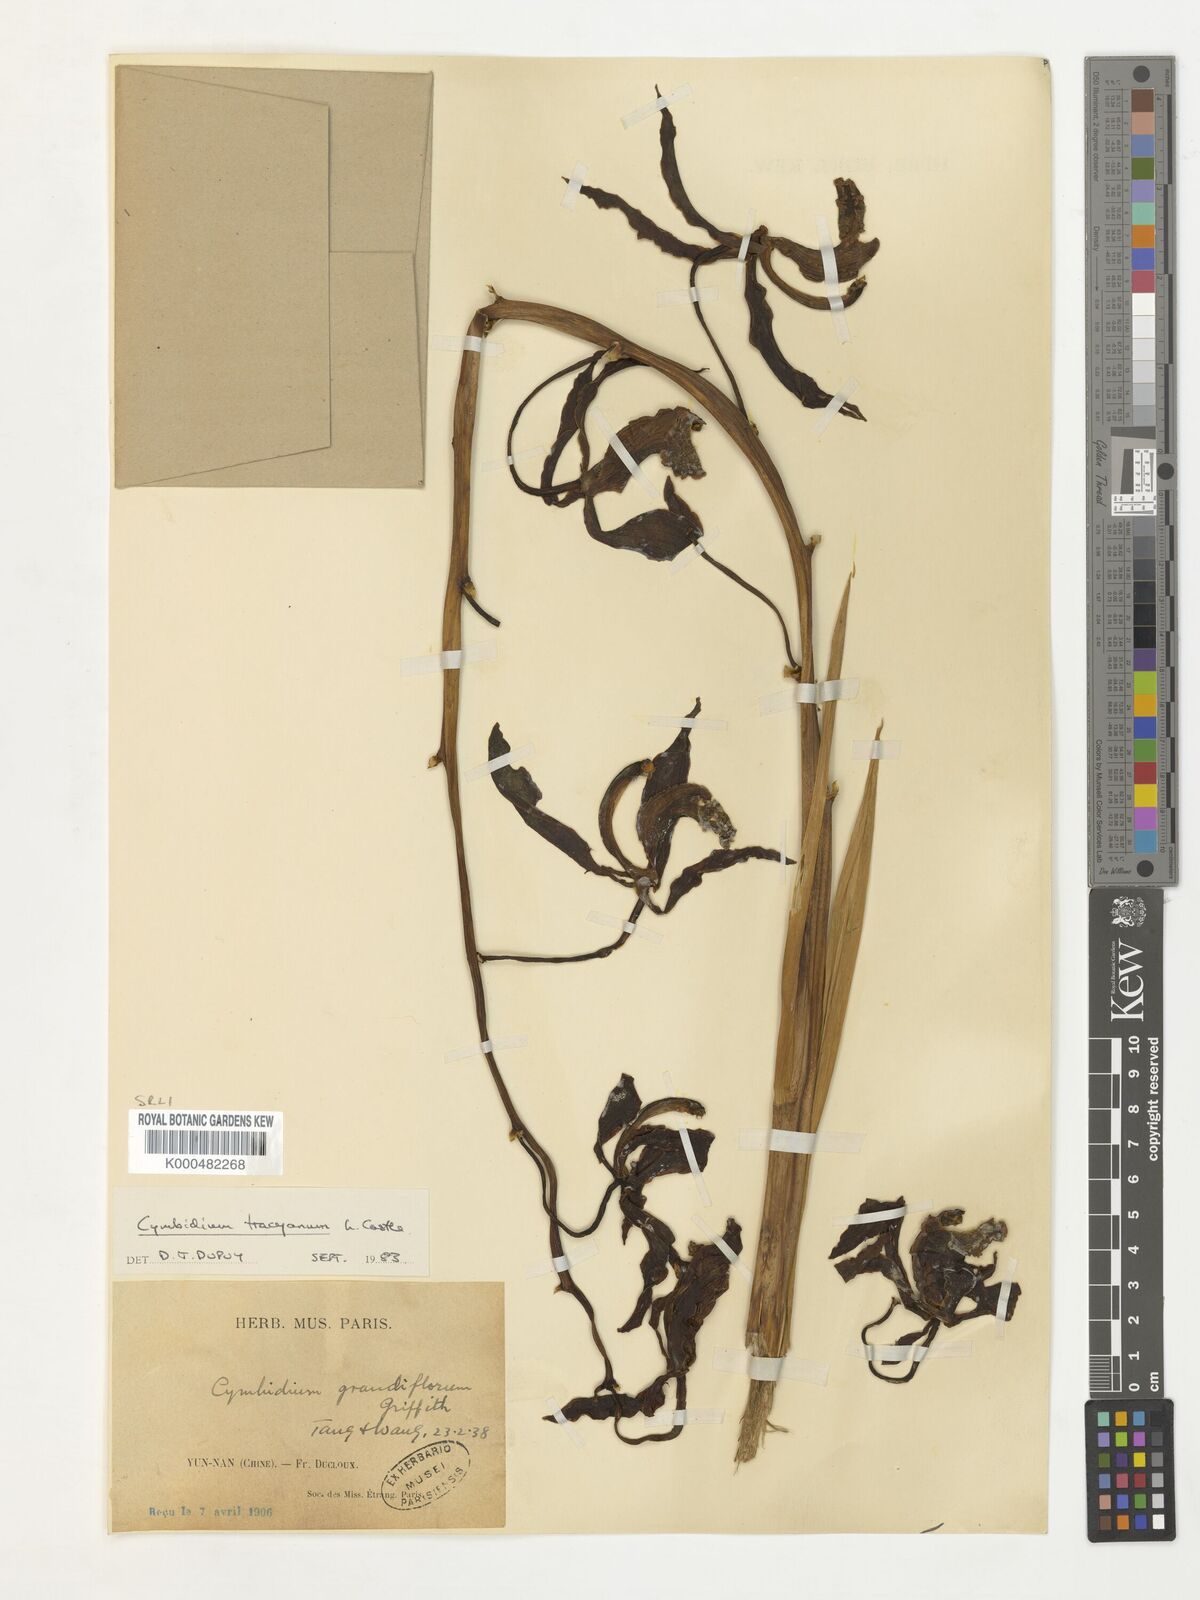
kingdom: Plantae
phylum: Tracheophyta
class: Liliopsida
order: Asparagales
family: Orchidaceae
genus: Cymbidium
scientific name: Cymbidium
